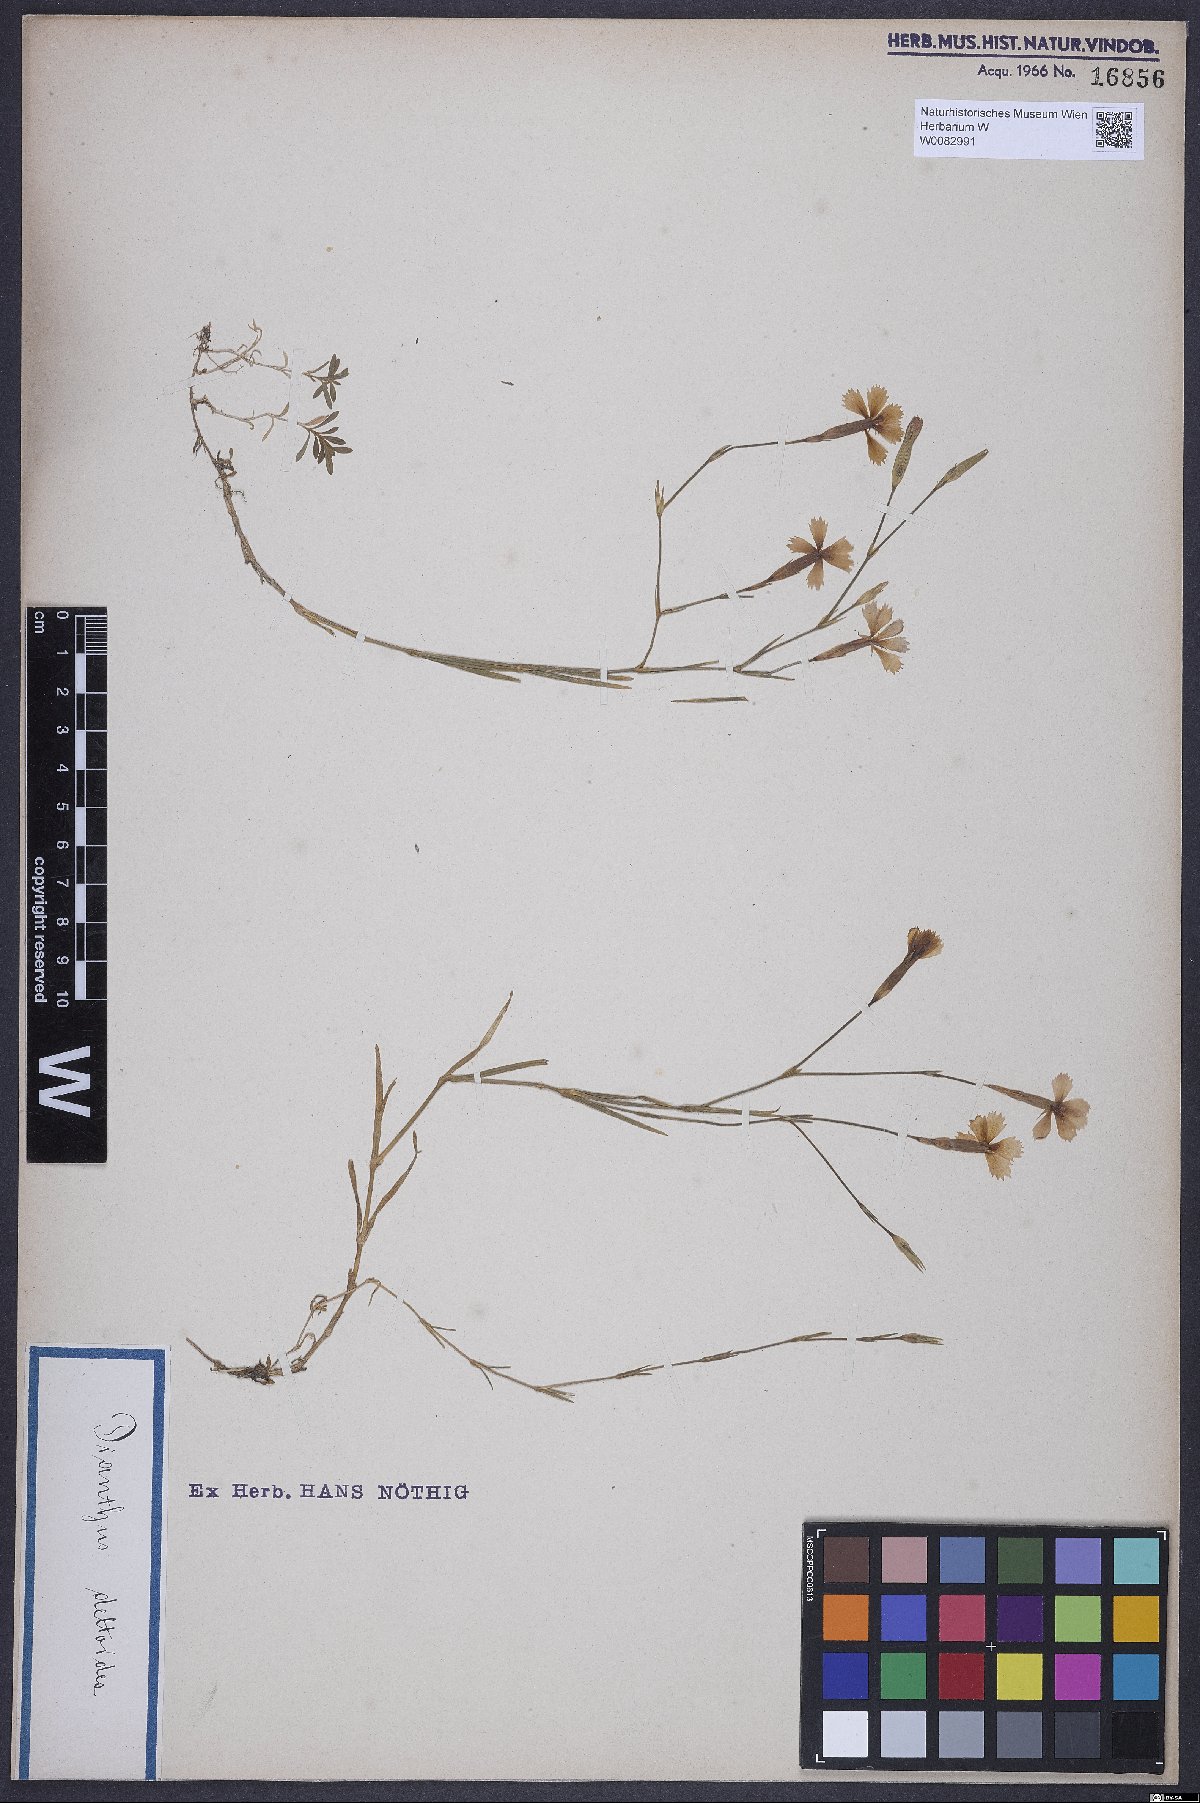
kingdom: Plantae
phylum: Tracheophyta
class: Magnoliopsida
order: Caryophyllales
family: Caryophyllaceae
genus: Dianthus
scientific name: Dianthus deltoides
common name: Maiden pink
